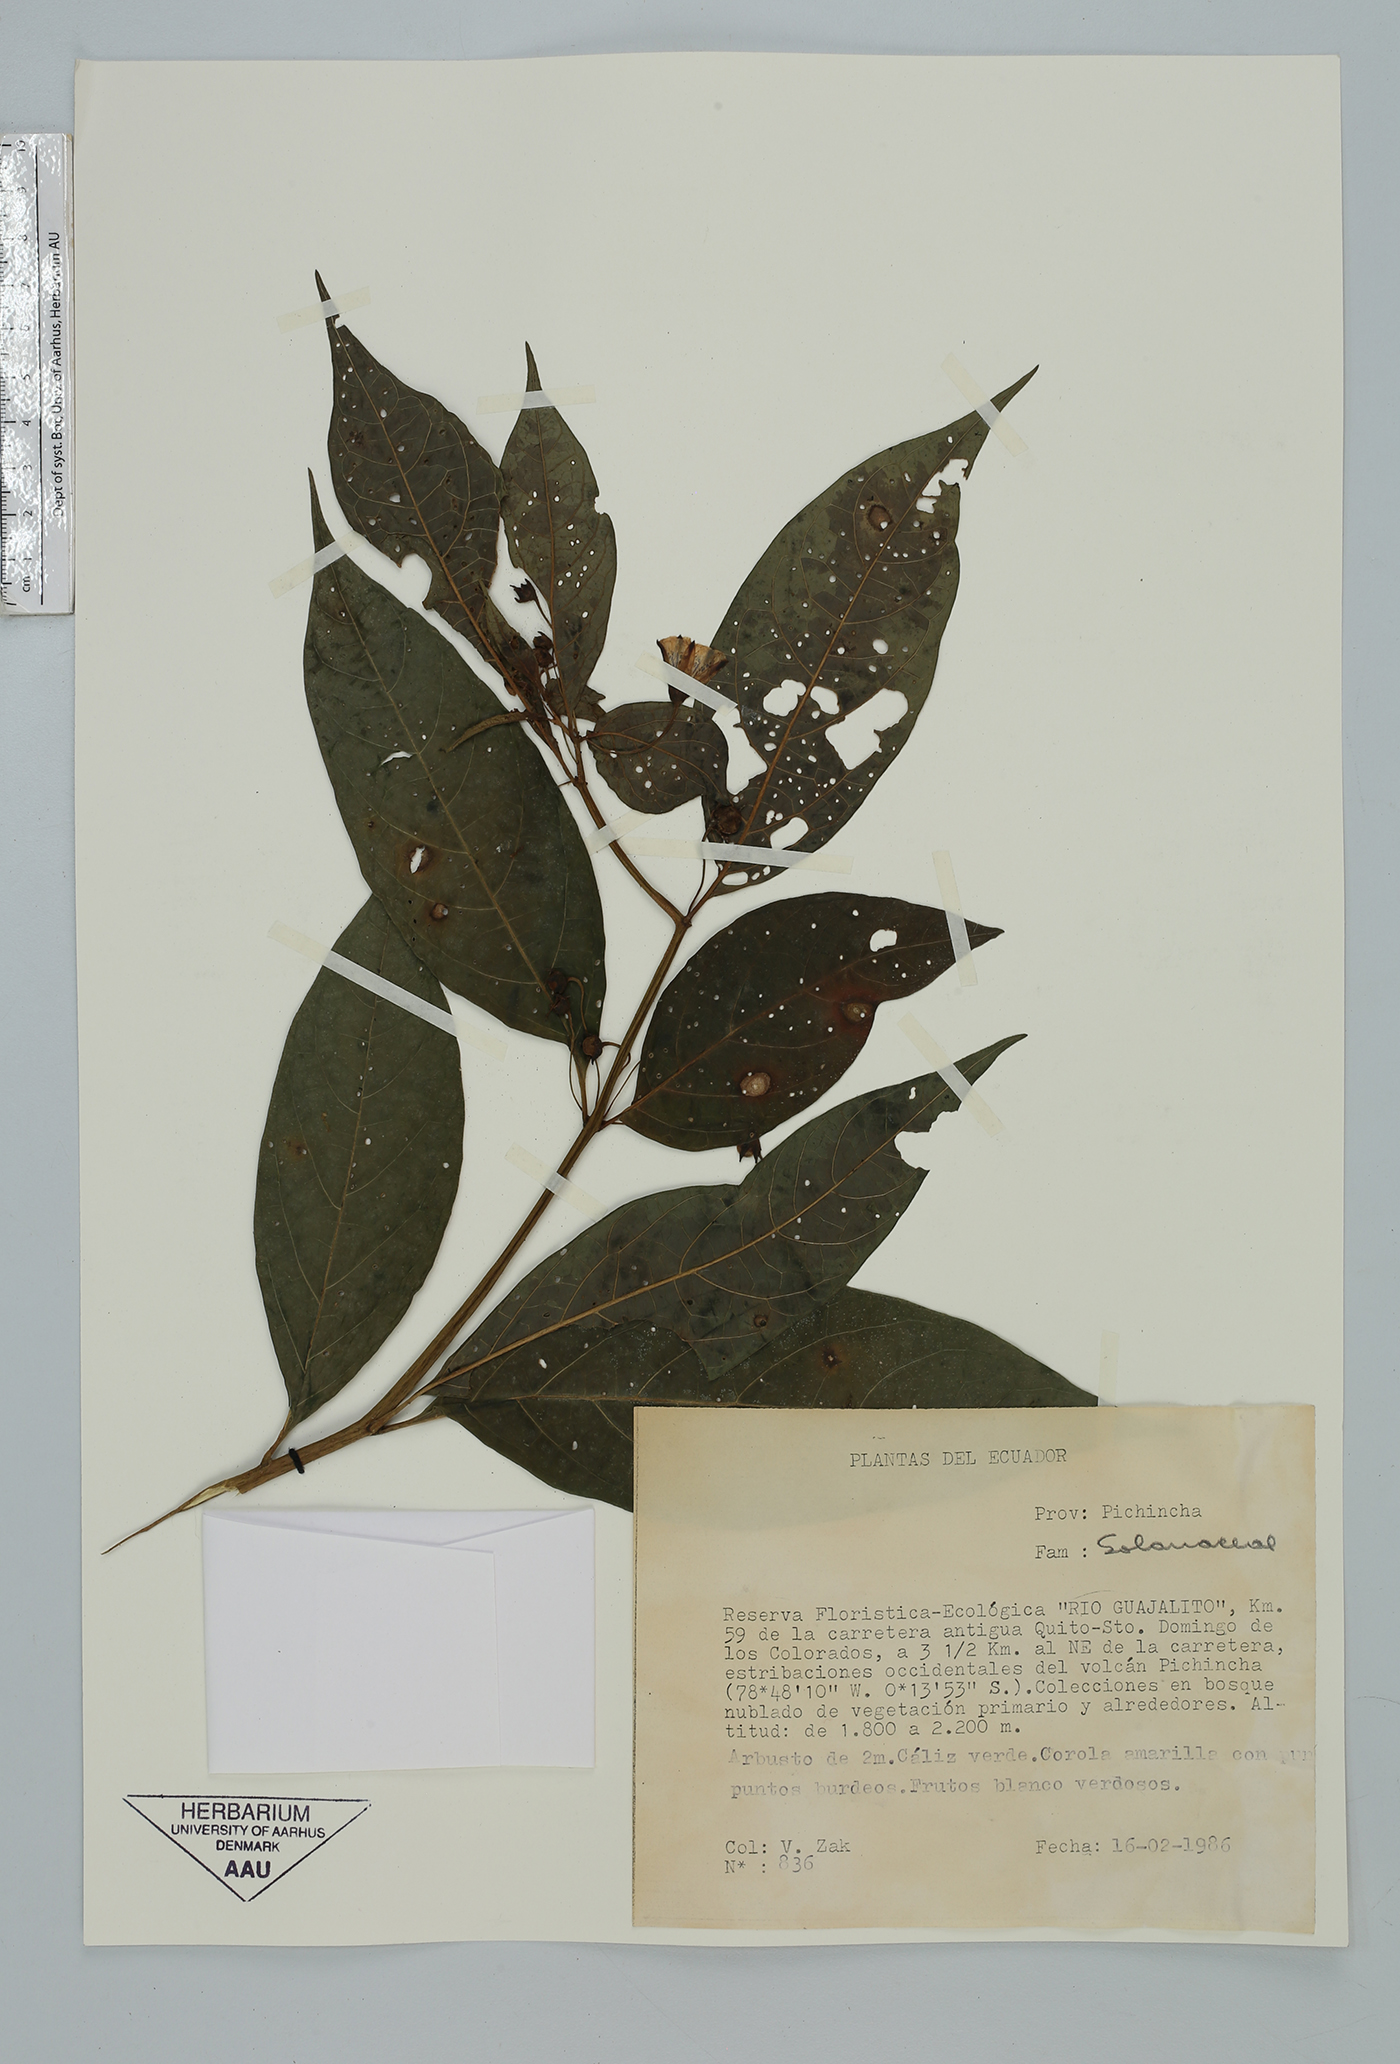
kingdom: Plantae
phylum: Tracheophyta
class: Magnoliopsida
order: Solanales
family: Solanaceae
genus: Capsicum
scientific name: Capsicum
